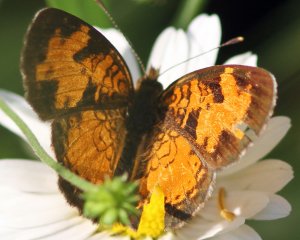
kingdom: Animalia
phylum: Arthropoda
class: Insecta
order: Lepidoptera
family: Nymphalidae
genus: Phyciodes
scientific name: Phyciodes tharos
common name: Northern Crescent
